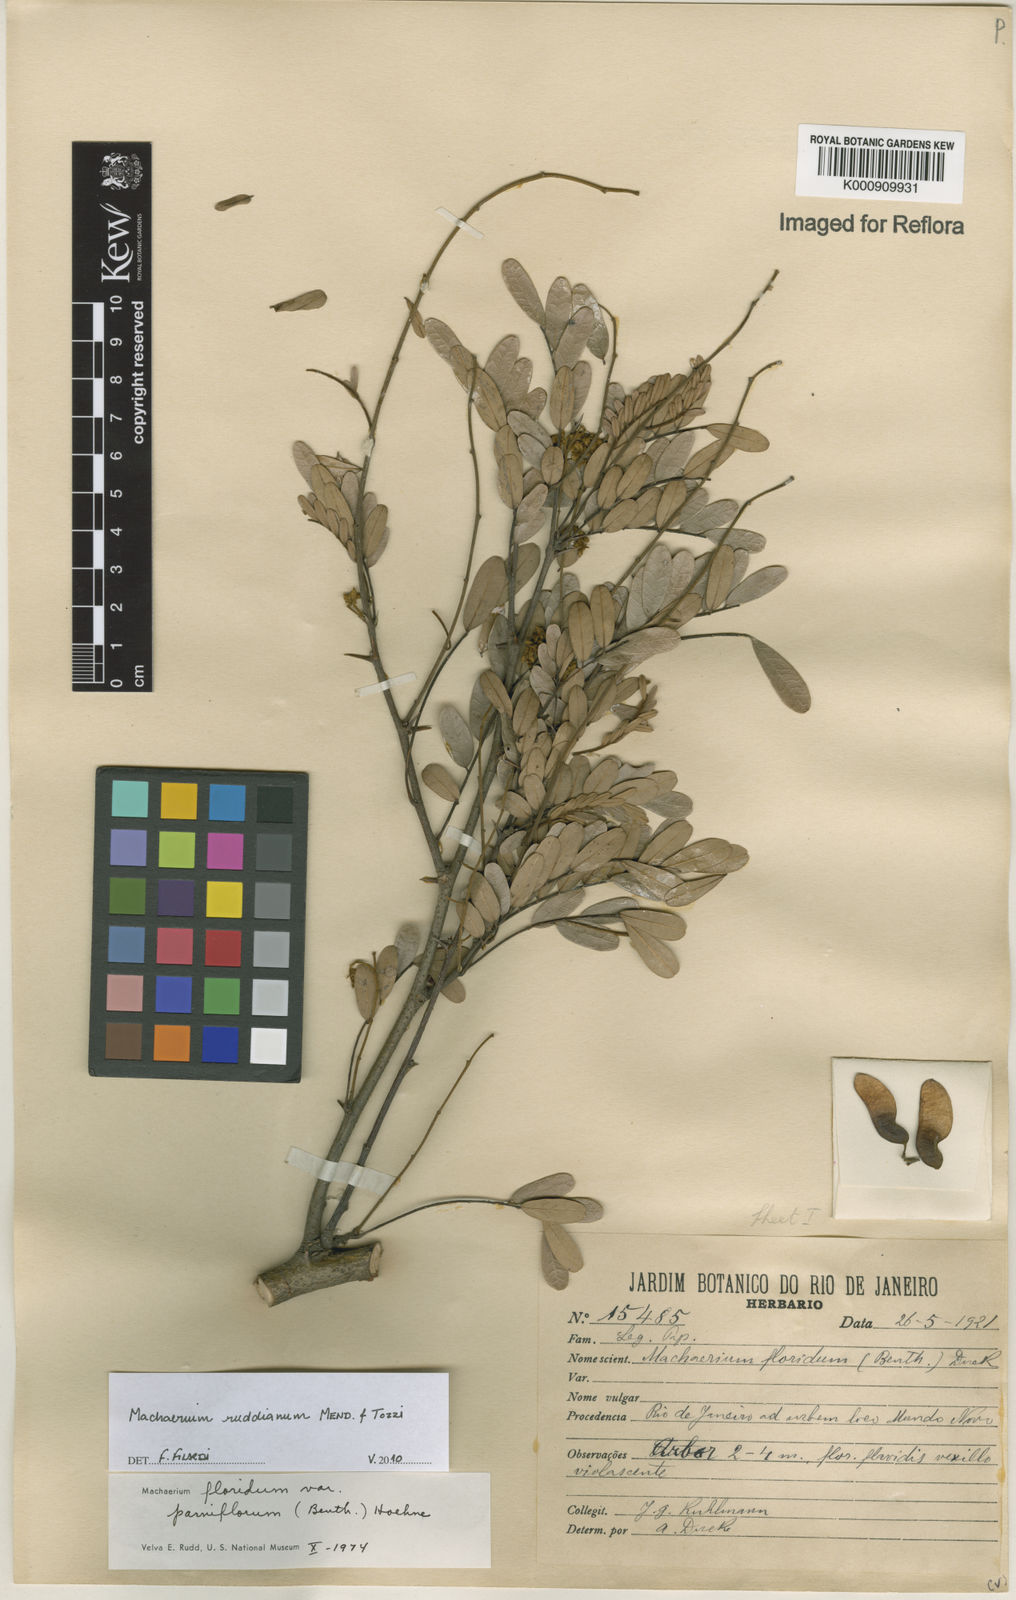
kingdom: Plantae
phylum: Tracheophyta
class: Magnoliopsida
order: Fabales
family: Fabaceae
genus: Machaerium
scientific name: Machaerium
